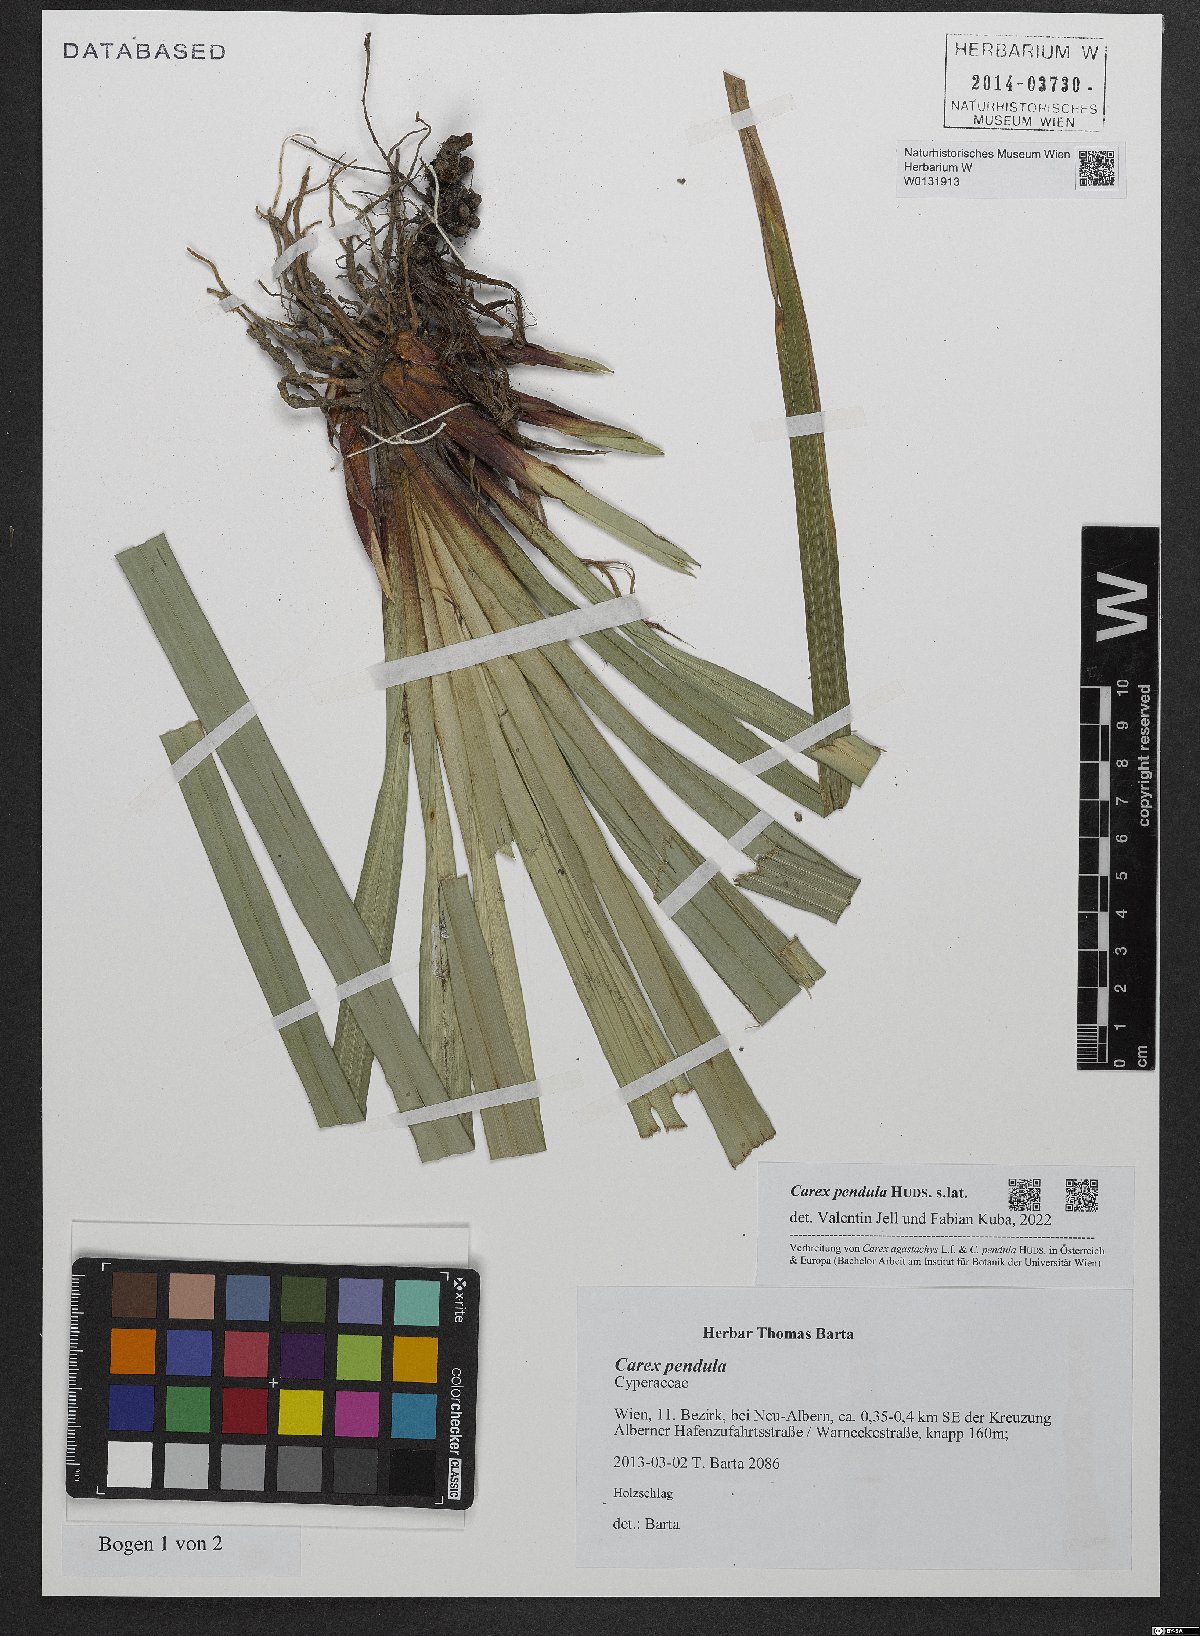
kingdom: Plantae
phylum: Tracheophyta
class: Liliopsida
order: Poales
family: Cyperaceae
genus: Carex
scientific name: Carex pendula
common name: Pendulous sedge
